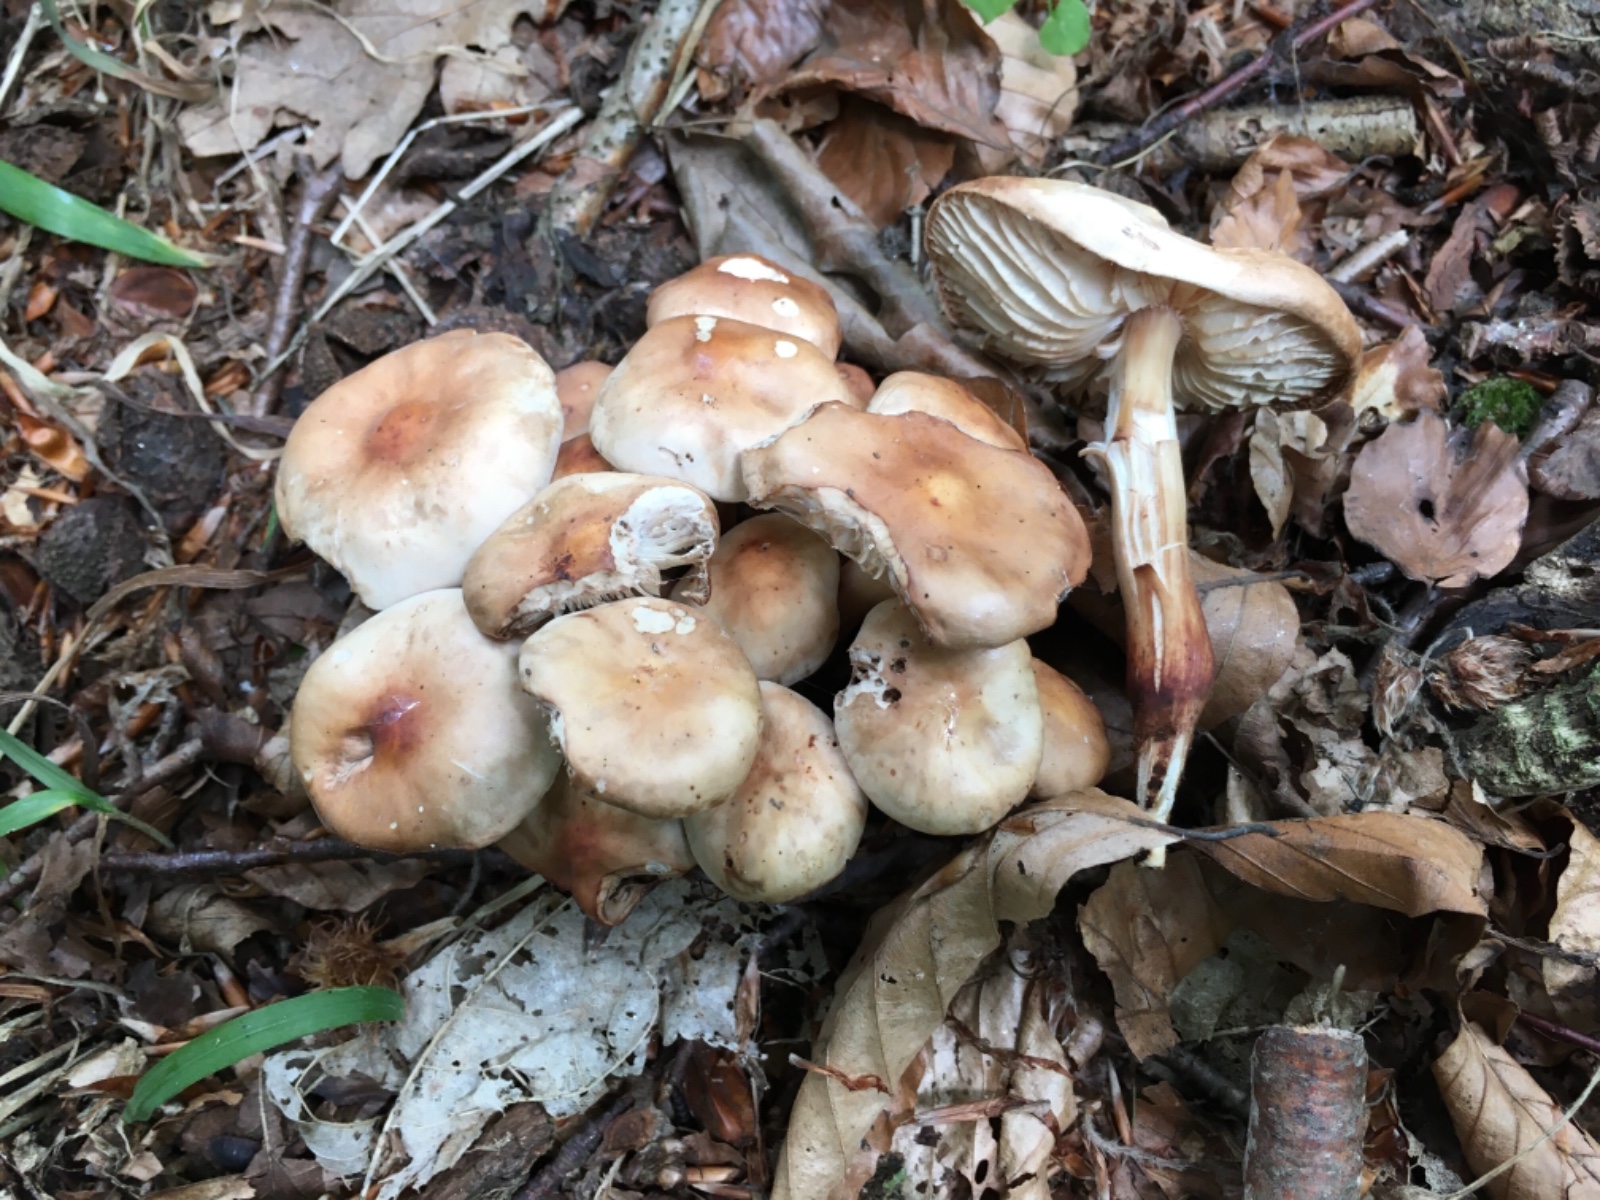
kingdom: Fungi
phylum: Basidiomycota
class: Agaricomycetes
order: Agaricales
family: Omphalotaceae
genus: Gymnopus
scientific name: Gymnopus fusipes
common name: tenstokket fladhat
